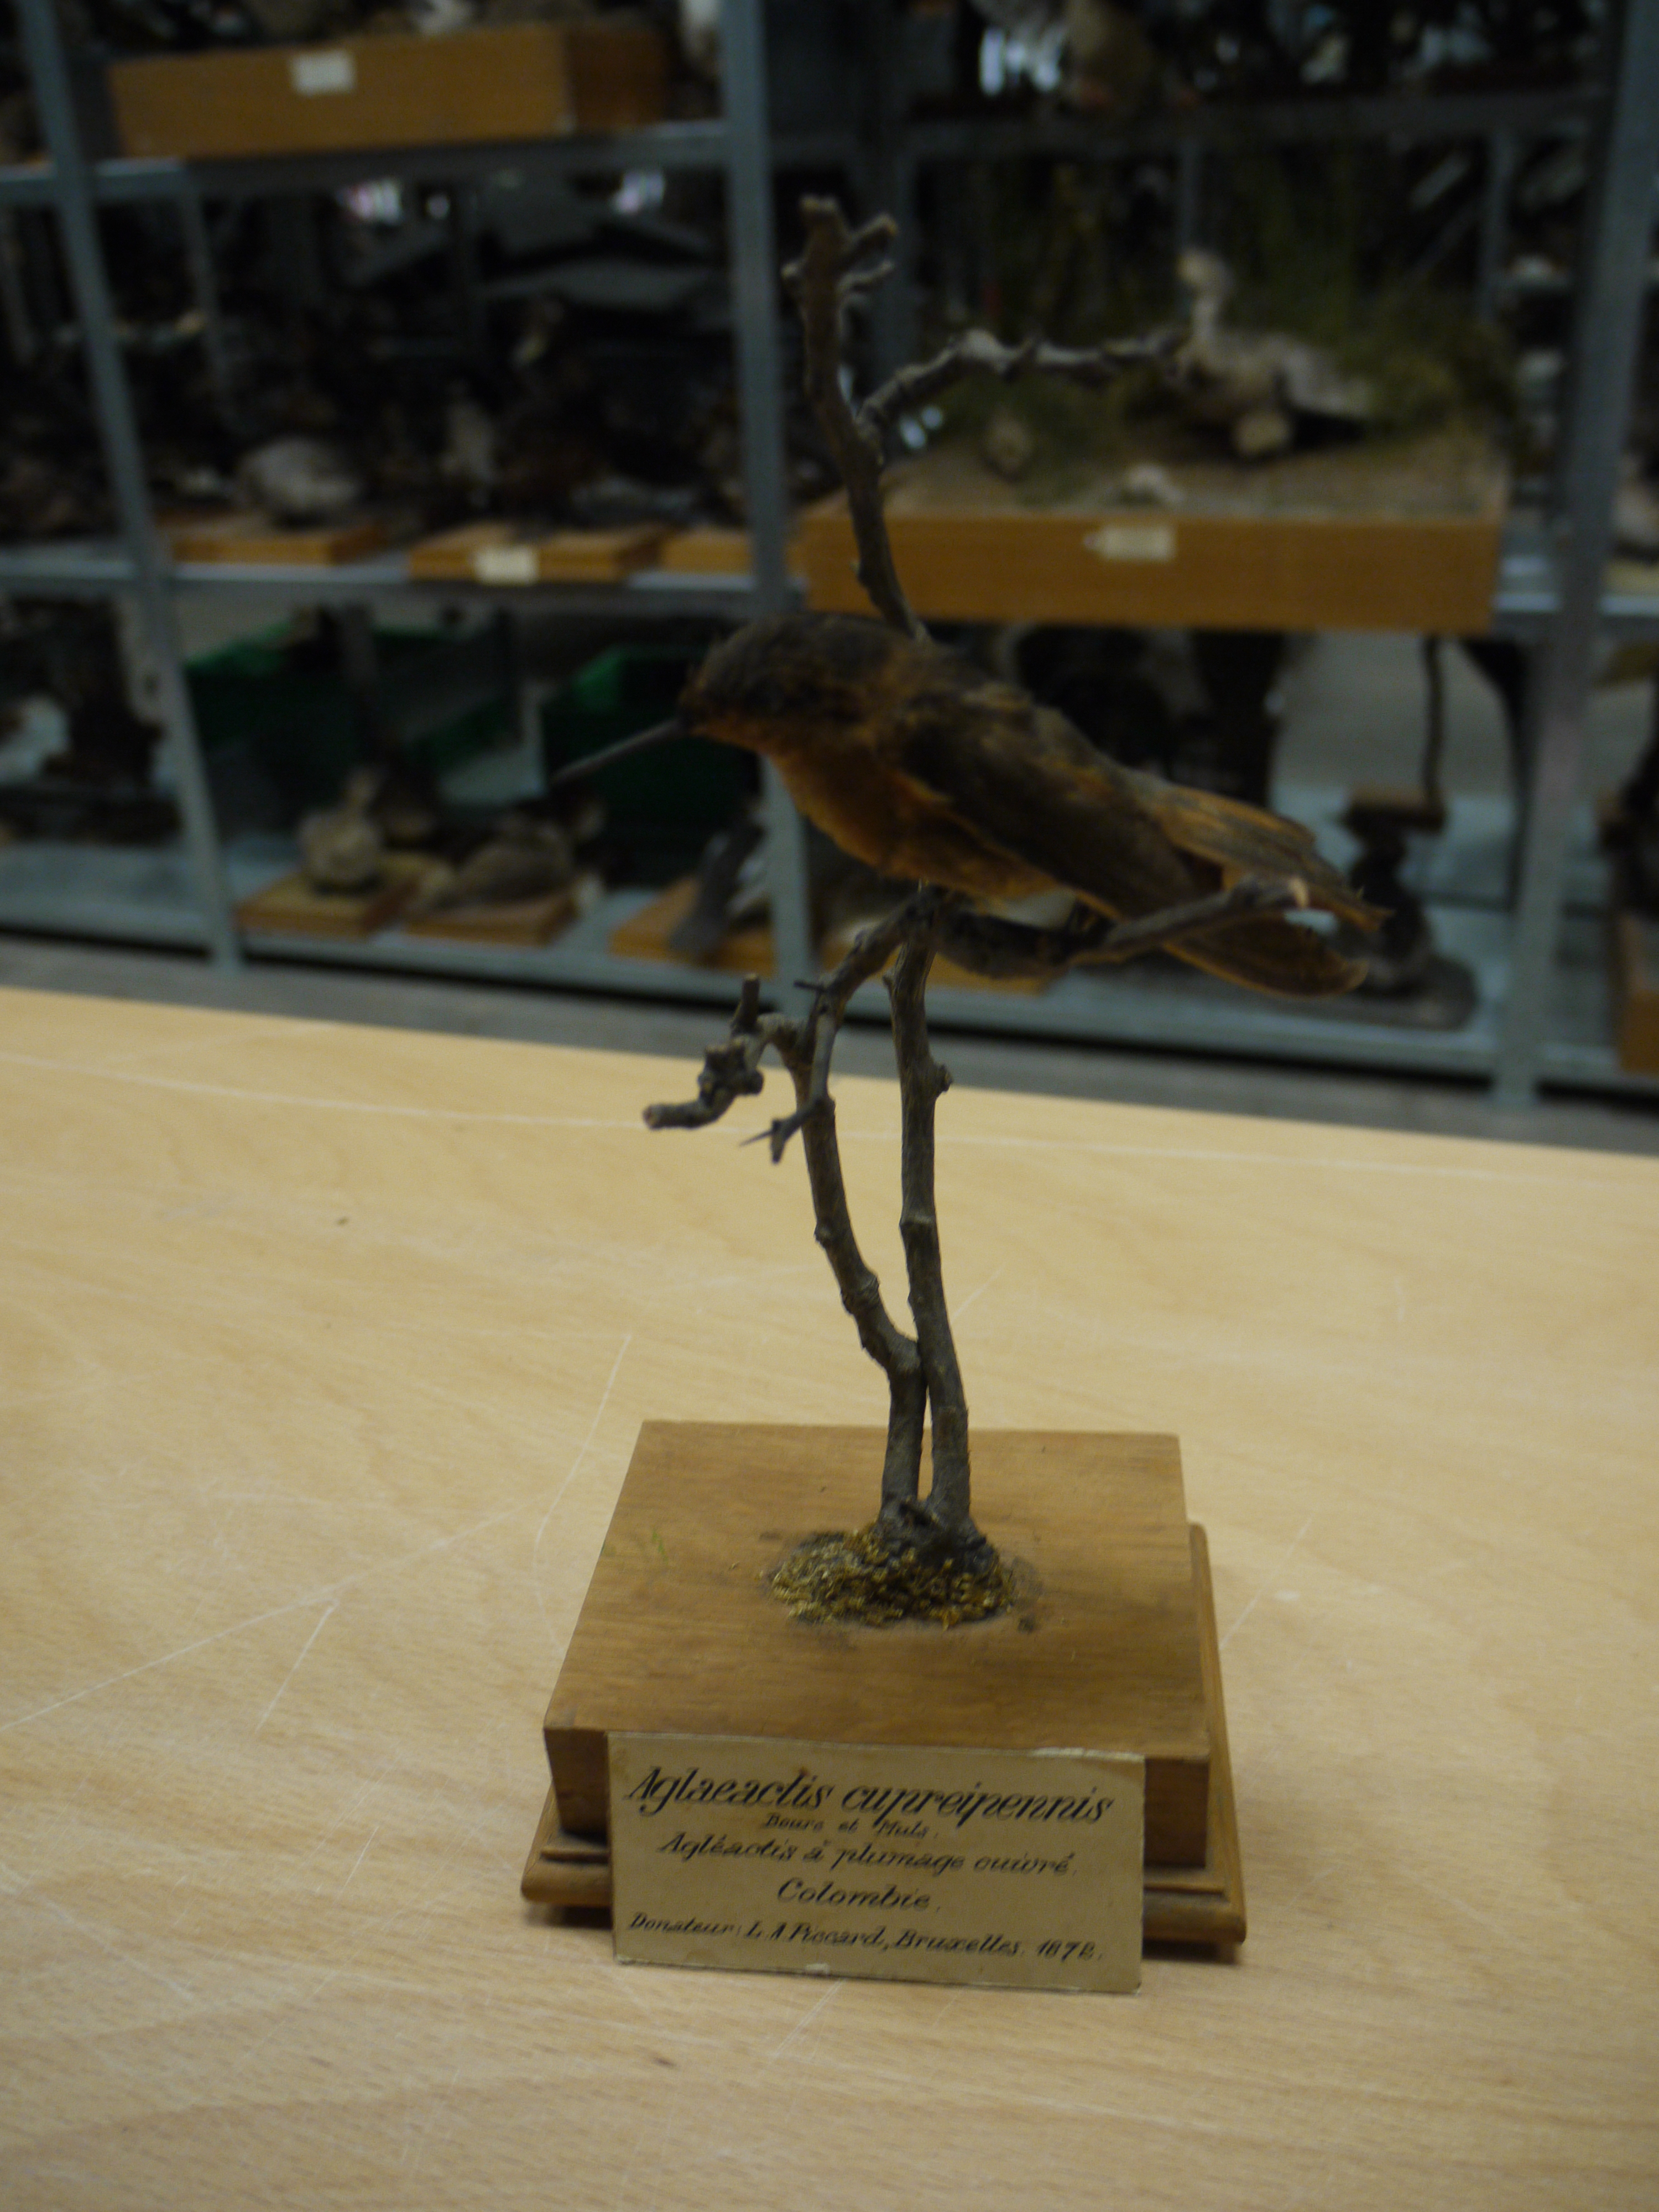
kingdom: Animalia
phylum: Chordata
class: Aves
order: Apodiformes
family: Trochilidae
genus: Aglaeactis
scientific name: Aglaeactis cupripennis
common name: Shining sunbeam
